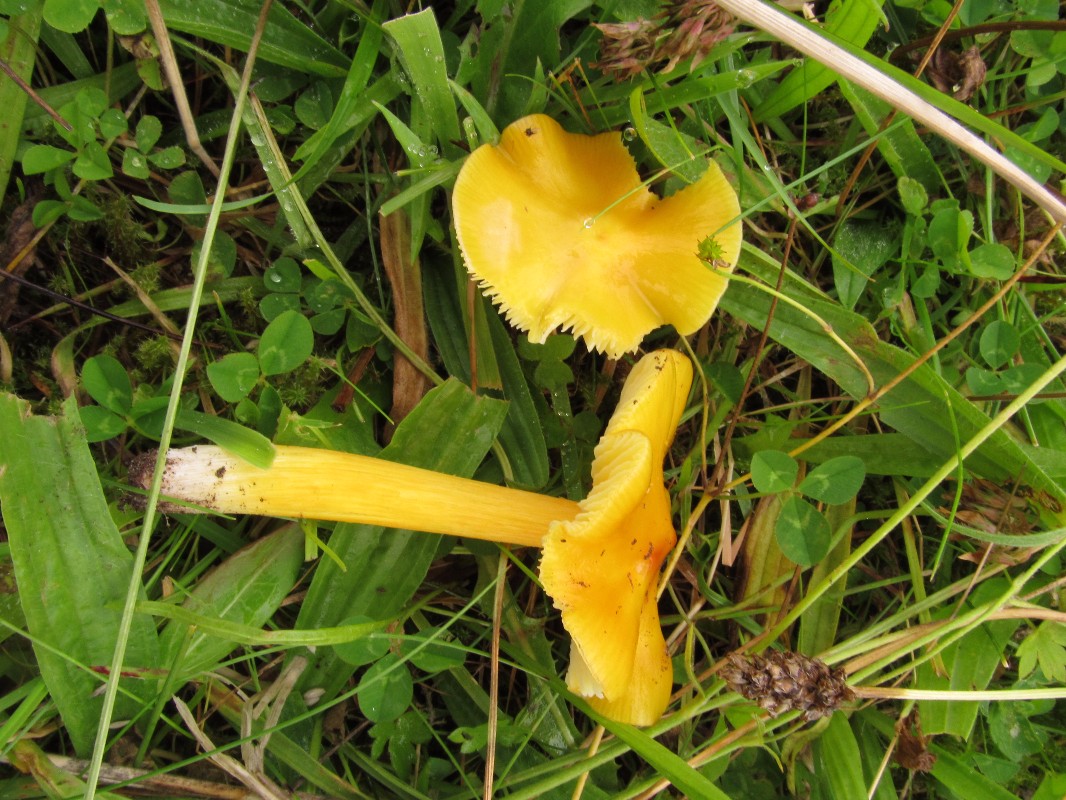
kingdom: Fungi
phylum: Basidiomycota
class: Agaricomycetes
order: Agaricales
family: Hygrophoraceae
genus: Hygrocybe
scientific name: Hygrocybe acutoconica
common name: spidspuklet vokshat
